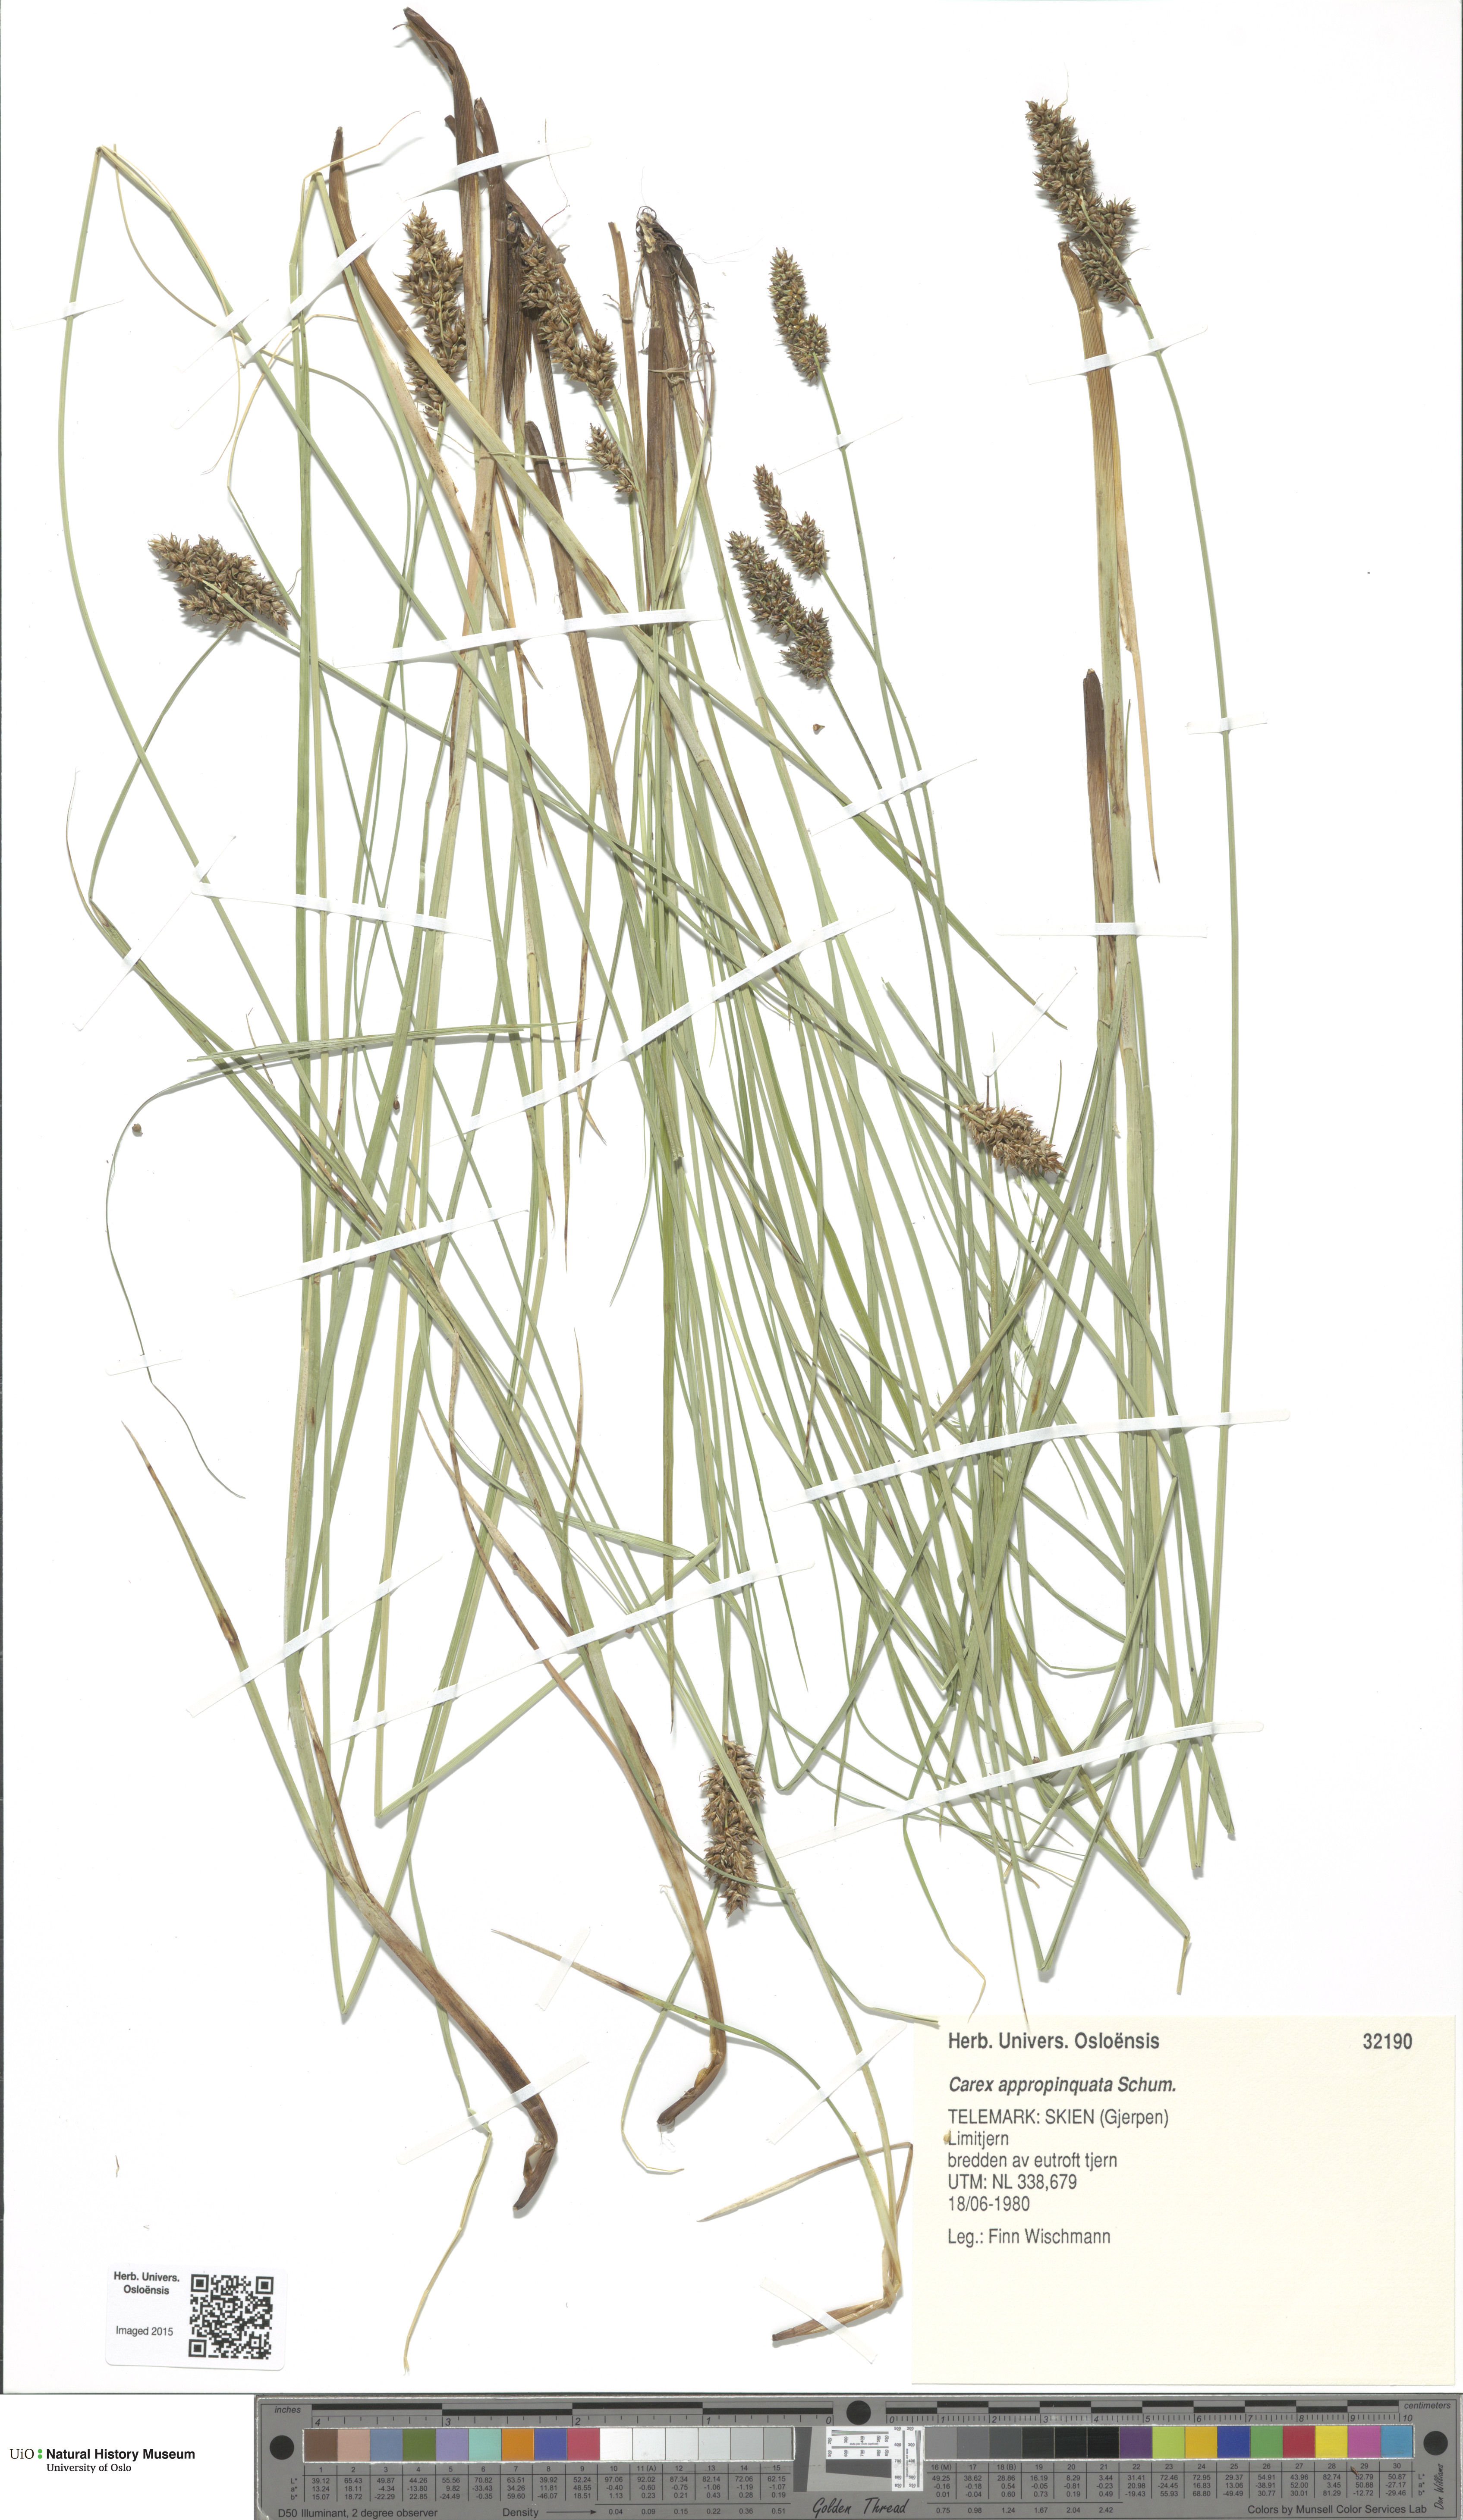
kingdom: Plantae
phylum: Tracheophyta
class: Liliopsida
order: Poales
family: Cyperaceae
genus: Carex
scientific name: Carex appropinquata
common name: Fibrous tussock-sedge
